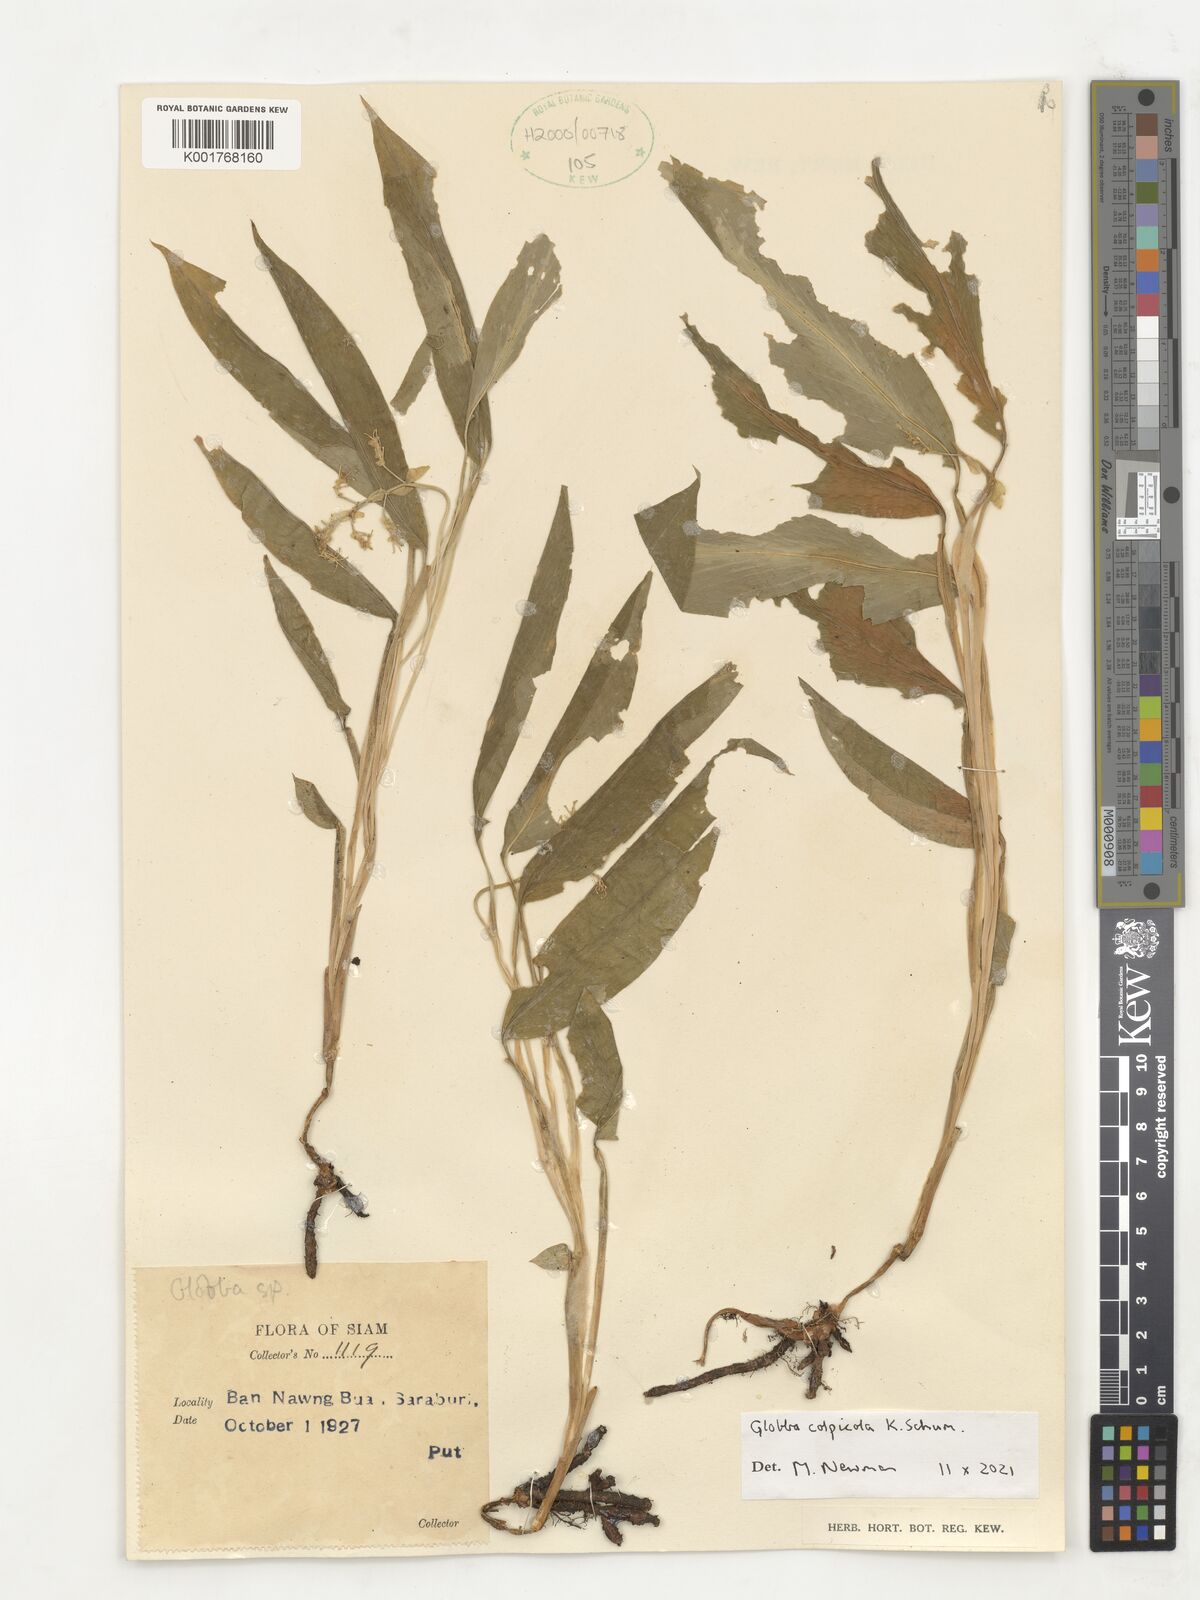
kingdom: Plantae
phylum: Tracheophyta
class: Liliopsida
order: Zingiberales
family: Zingiberaceae
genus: Globba
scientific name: Globba colpicola
